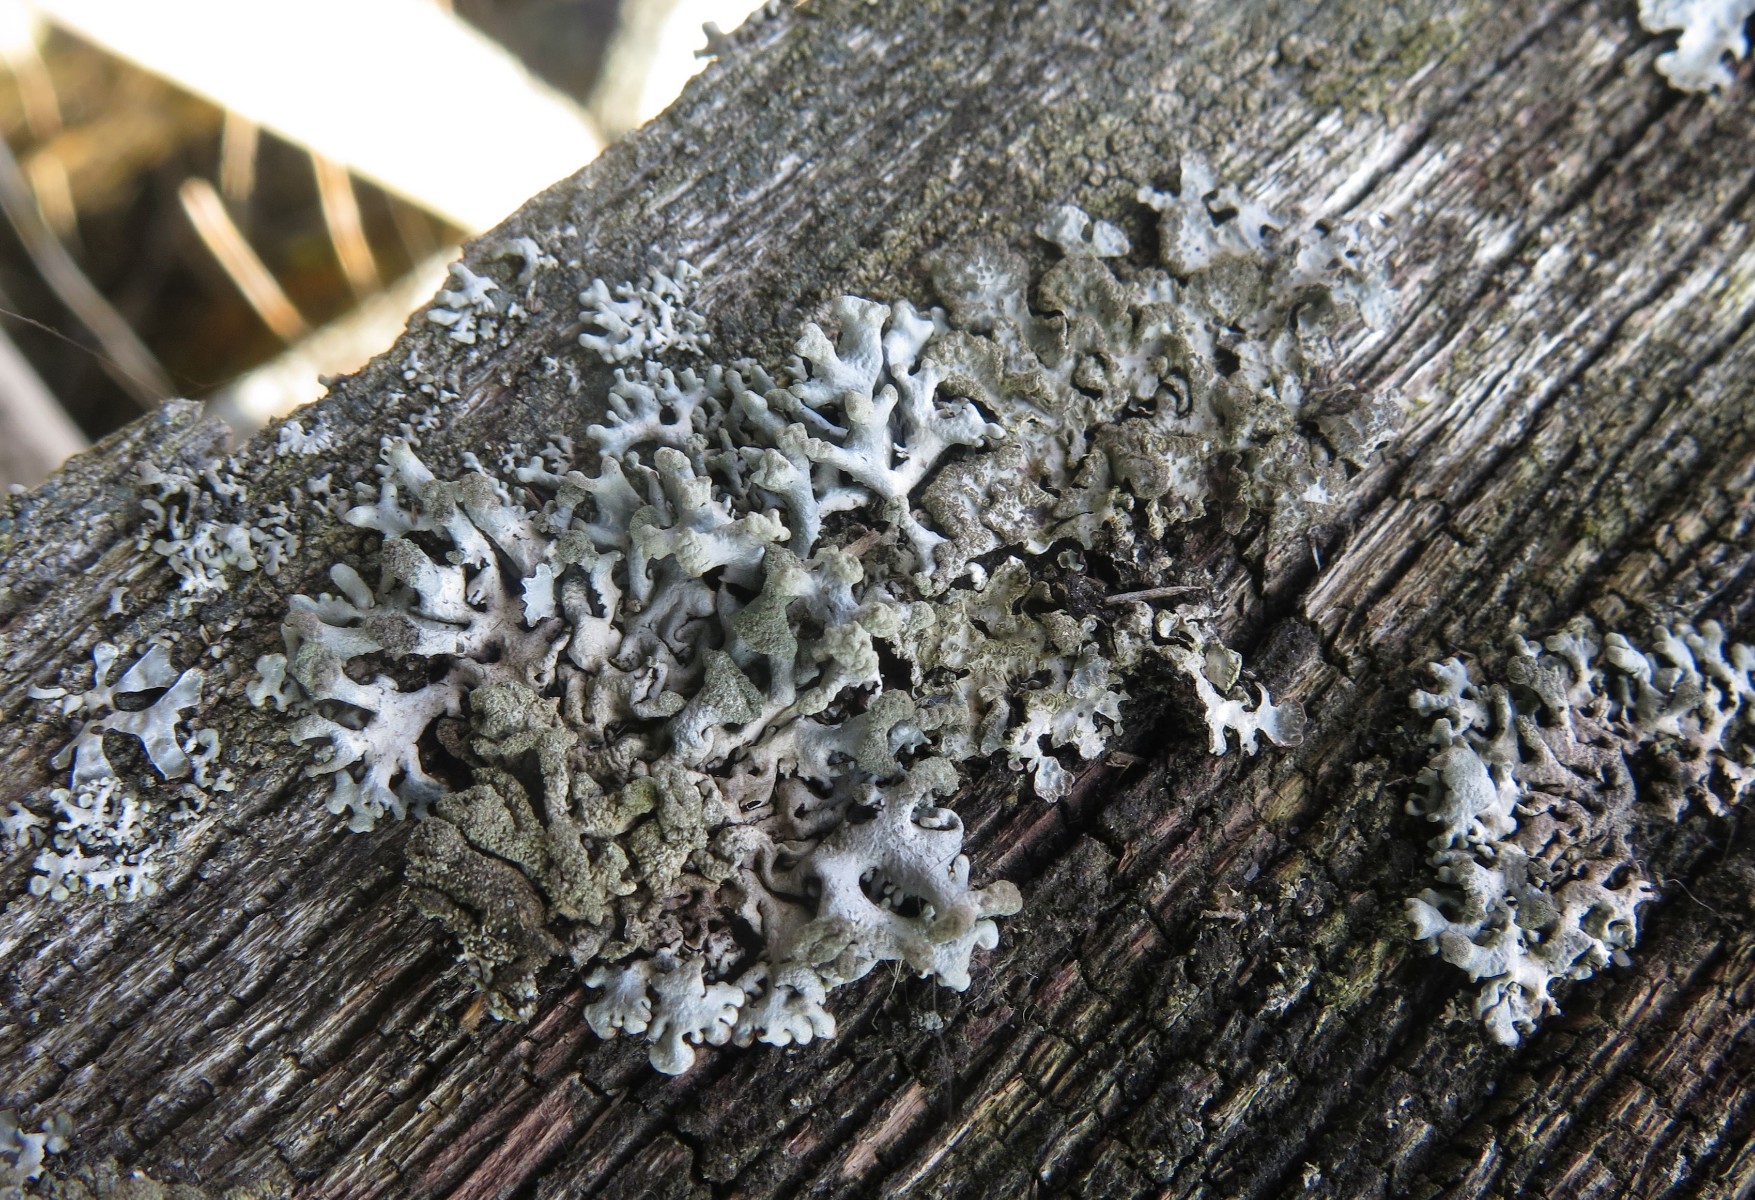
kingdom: Fungi
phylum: Ascomycota
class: Lecanoromycetes
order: Lecanorales
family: Parmeliaceae
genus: Hypogymnia
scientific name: Hypogymnia tubulosa
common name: finger-kvistlav
